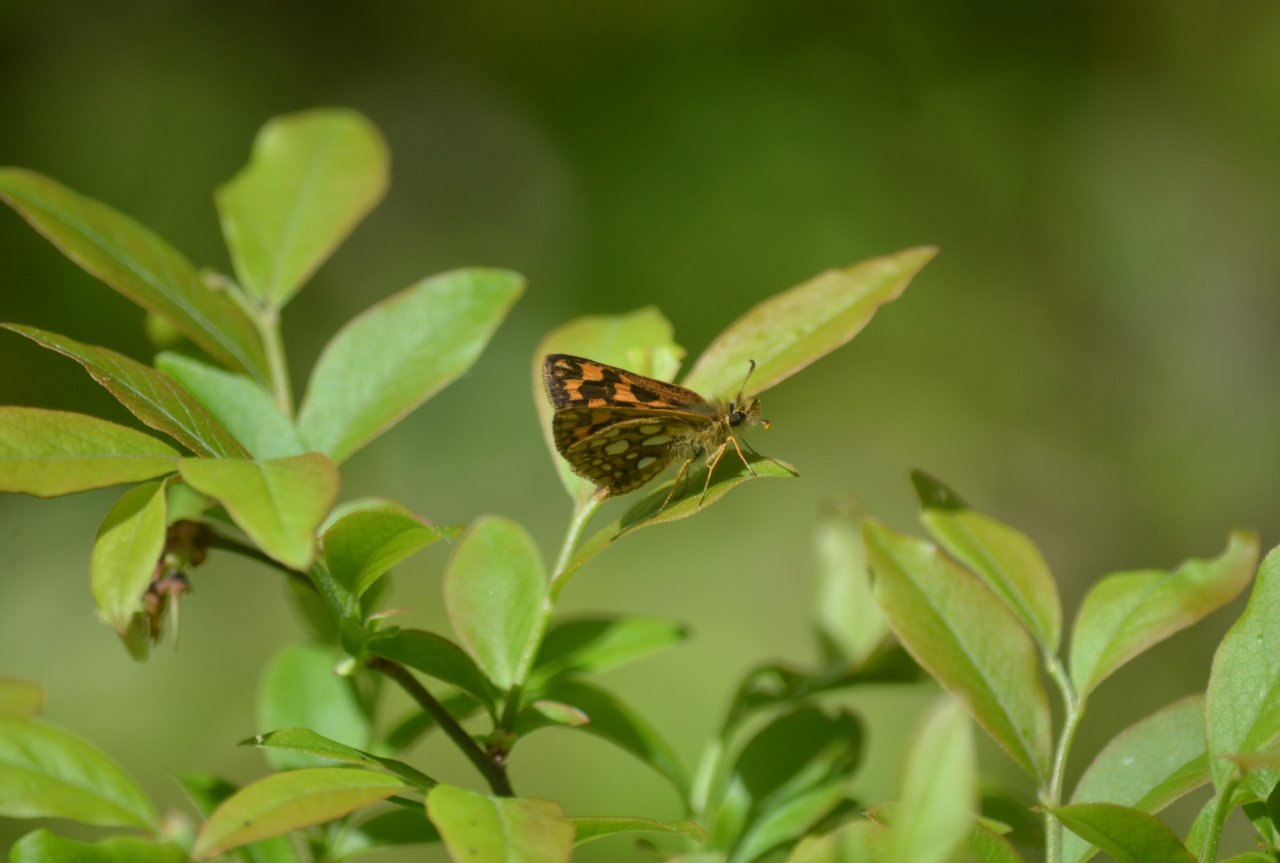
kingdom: Animalia
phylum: Arthropoda
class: Insecta
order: Lepidoptera
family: Hesperiidae
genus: Carterocephalus
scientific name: Carterocephalus palaemon
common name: Chequered Skipper
